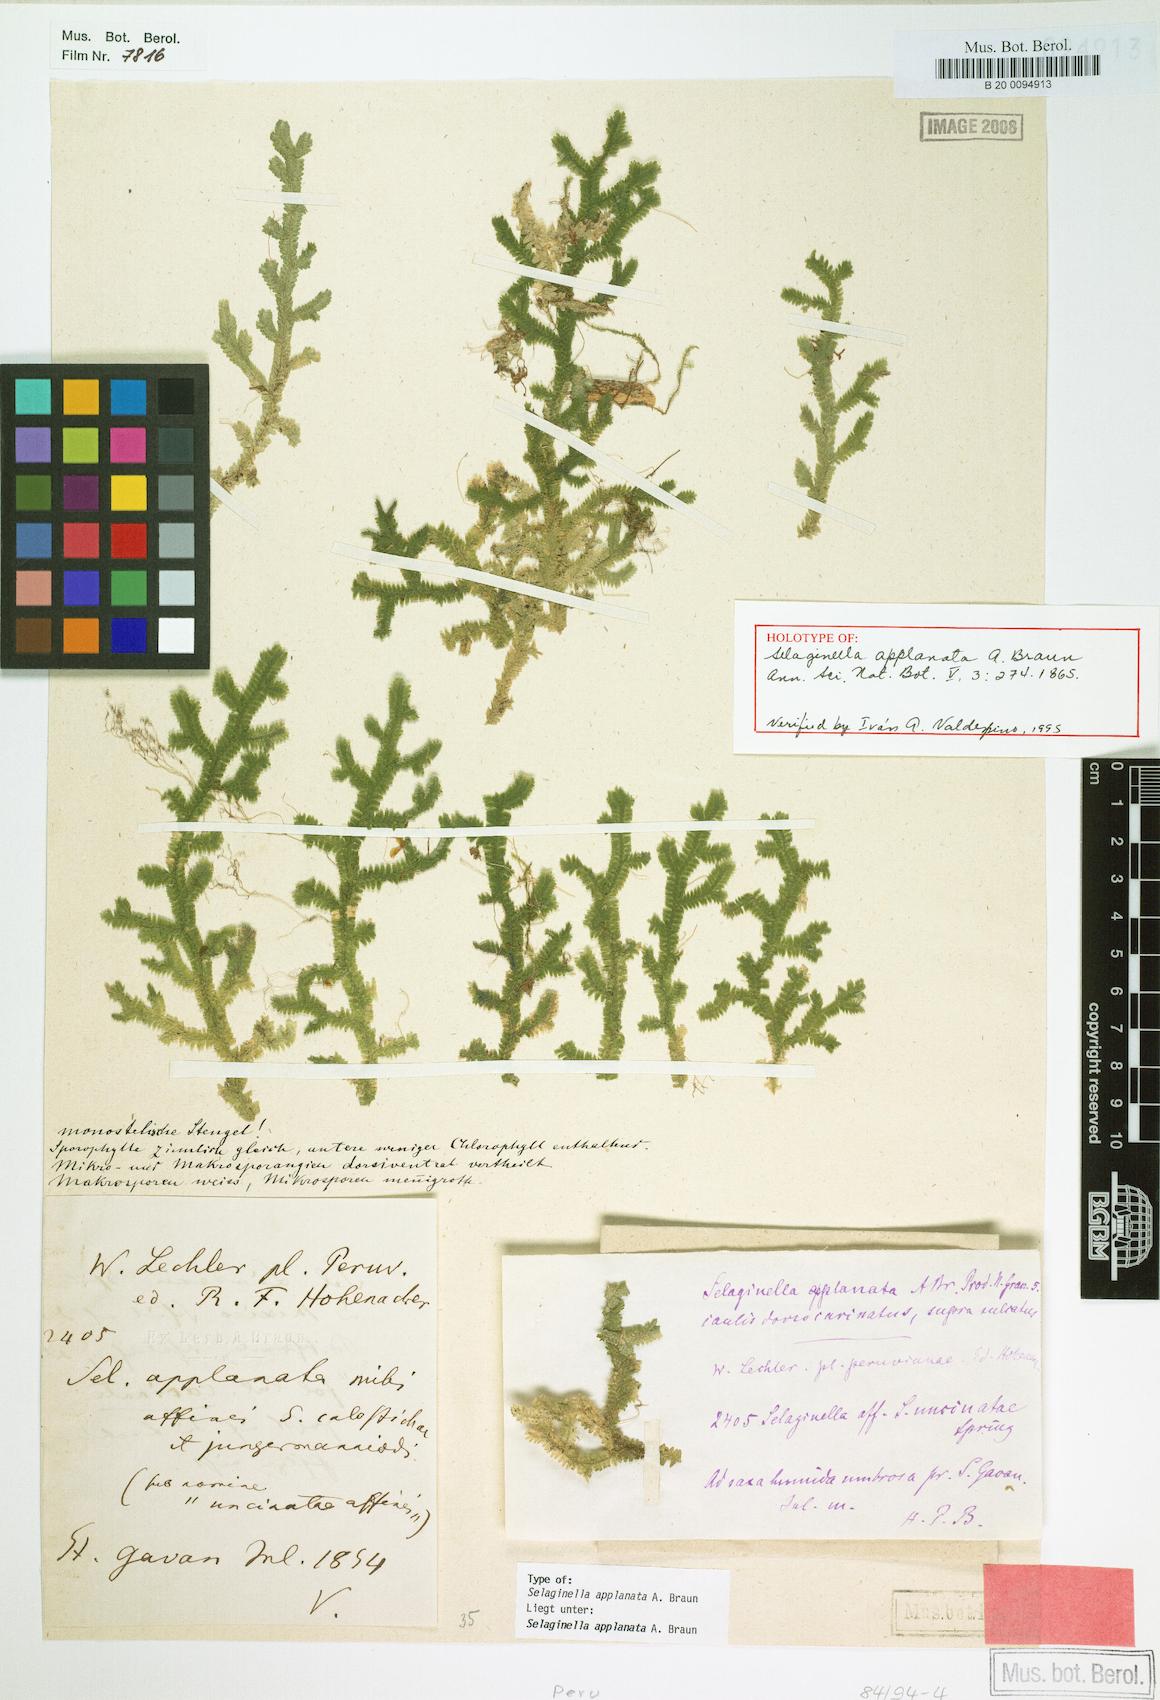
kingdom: Plantae
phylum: Tracheophyta
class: Lycopodiopsida
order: Selaginellales
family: Selaginellaceae
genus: Selaginella
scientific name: Selaginella applanata
